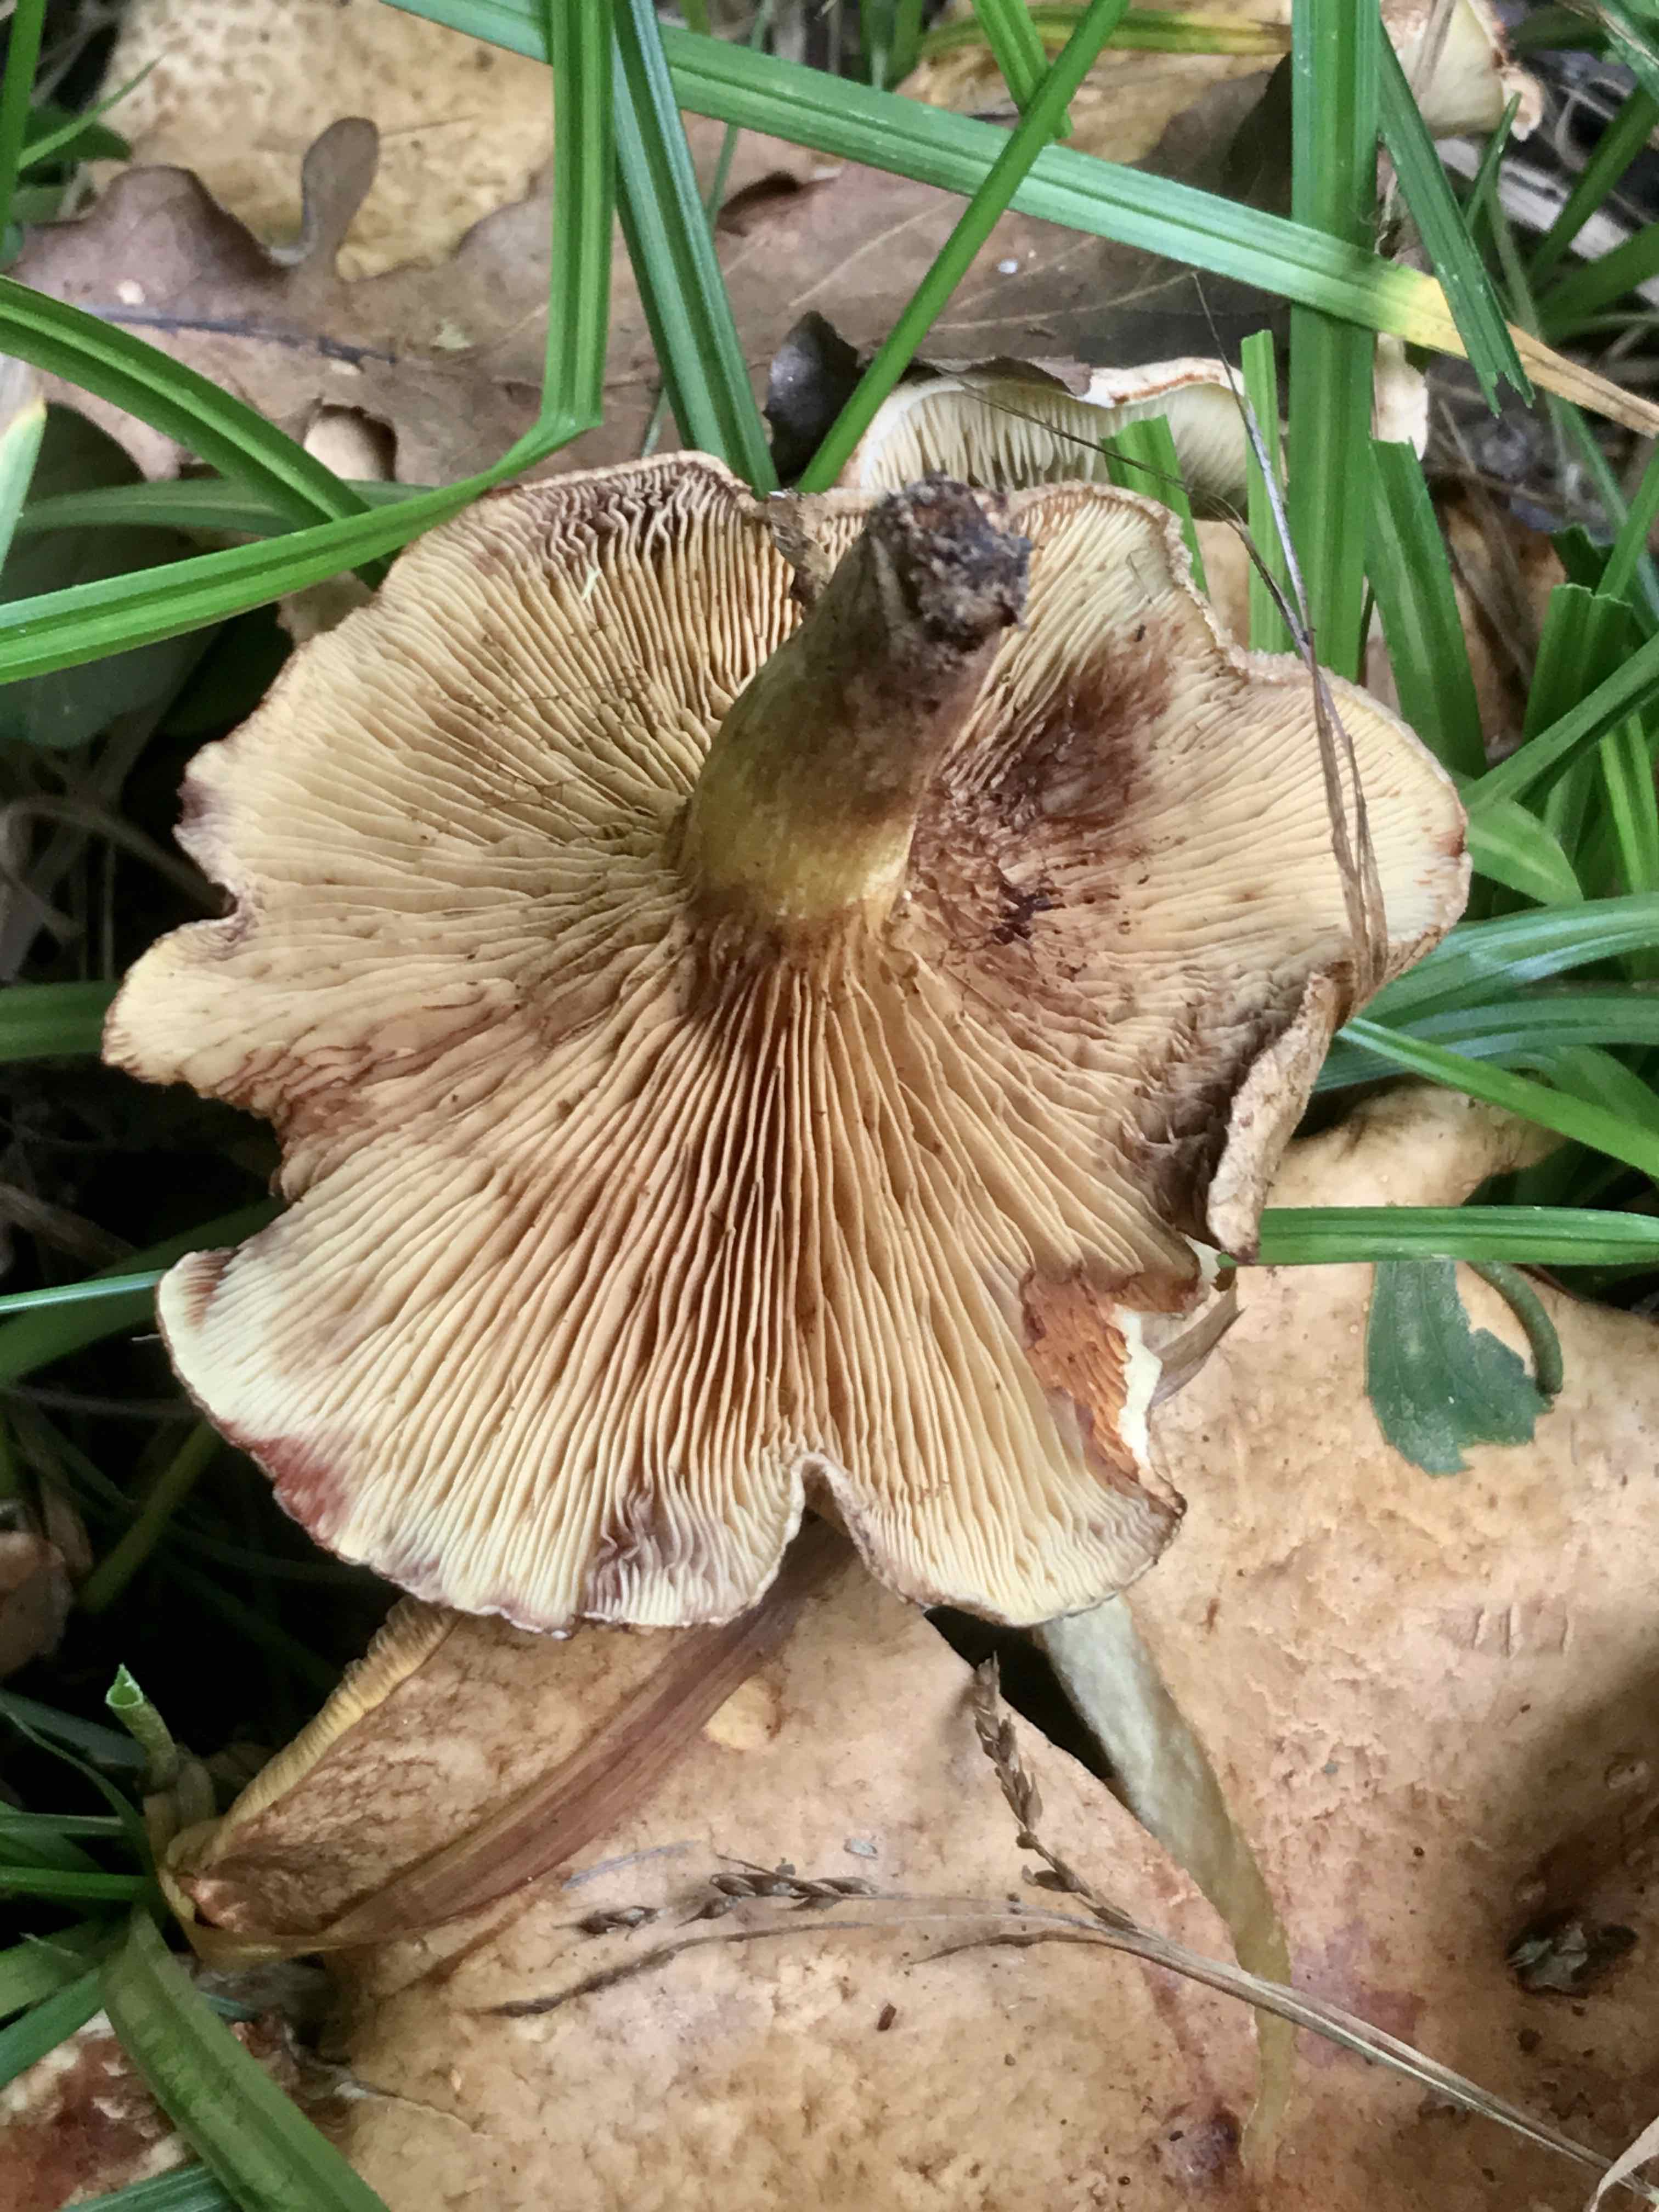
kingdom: Fungi
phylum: Basidiomycota
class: Agaricomycetes
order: Boletales
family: Paxillaceae
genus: Paxillus
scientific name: Paxillus involutus
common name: almindelig netbladhat
